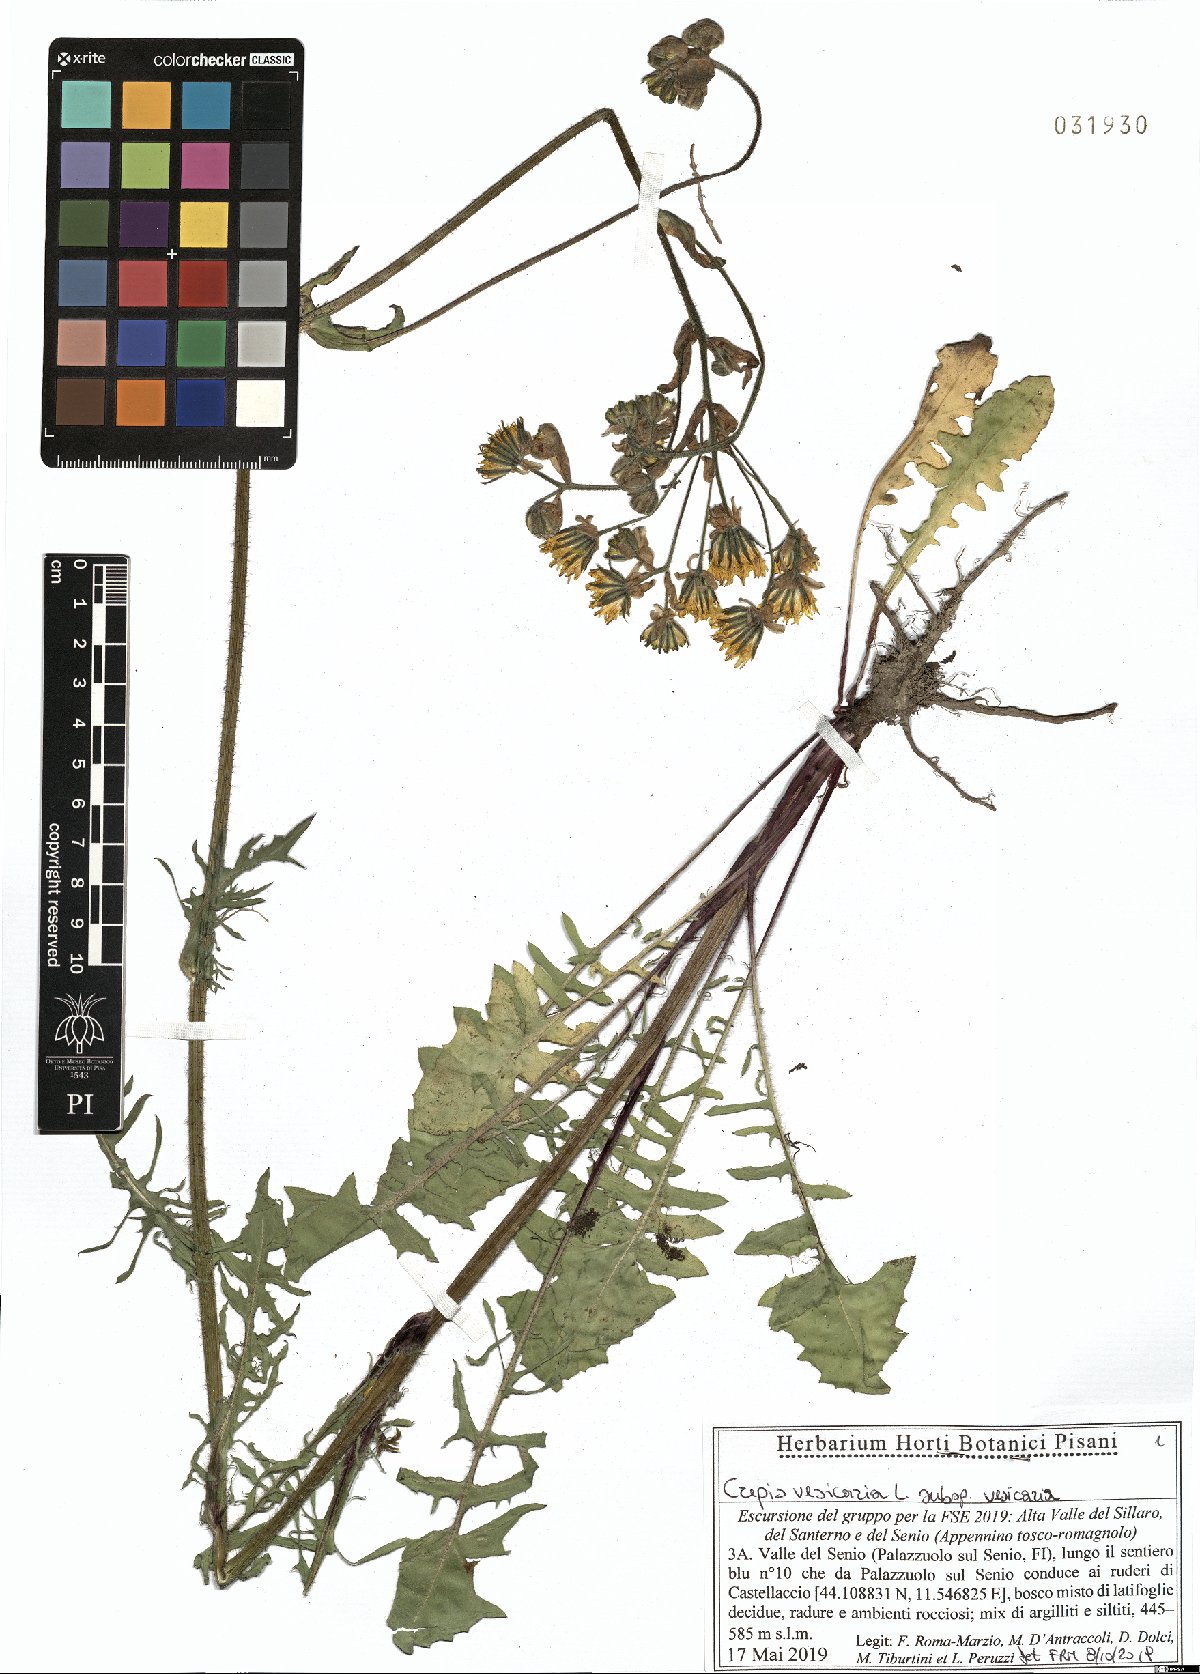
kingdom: Plantae
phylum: Tracheophyta
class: Magnoliopsida
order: Asterales
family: Asteraceae
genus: Crepis
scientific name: Crepis vesicaria
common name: Beaked hawksbeard
